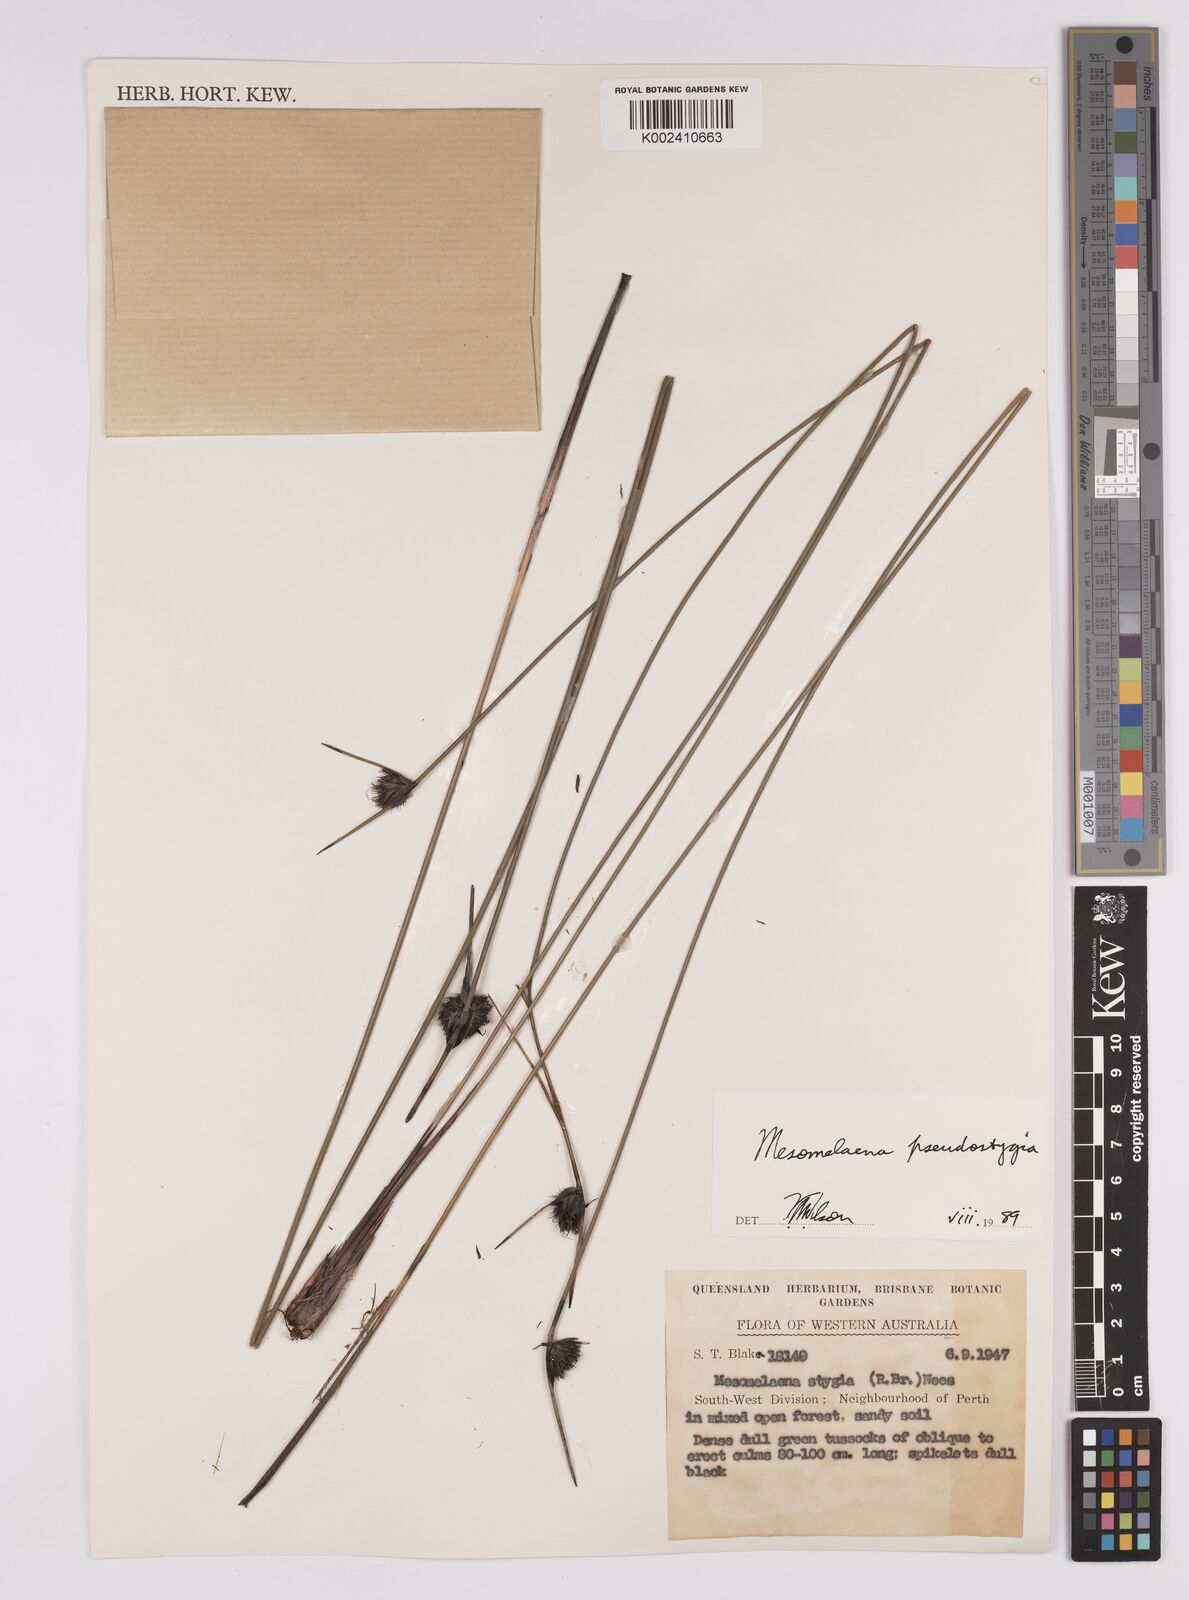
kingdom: Plantae
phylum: Tracheophyta
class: Liliopsida
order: Poales
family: Cyperaceae
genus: Mesomelaena
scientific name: Mesomelaena pseudostygia
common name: Semaphore sedge
